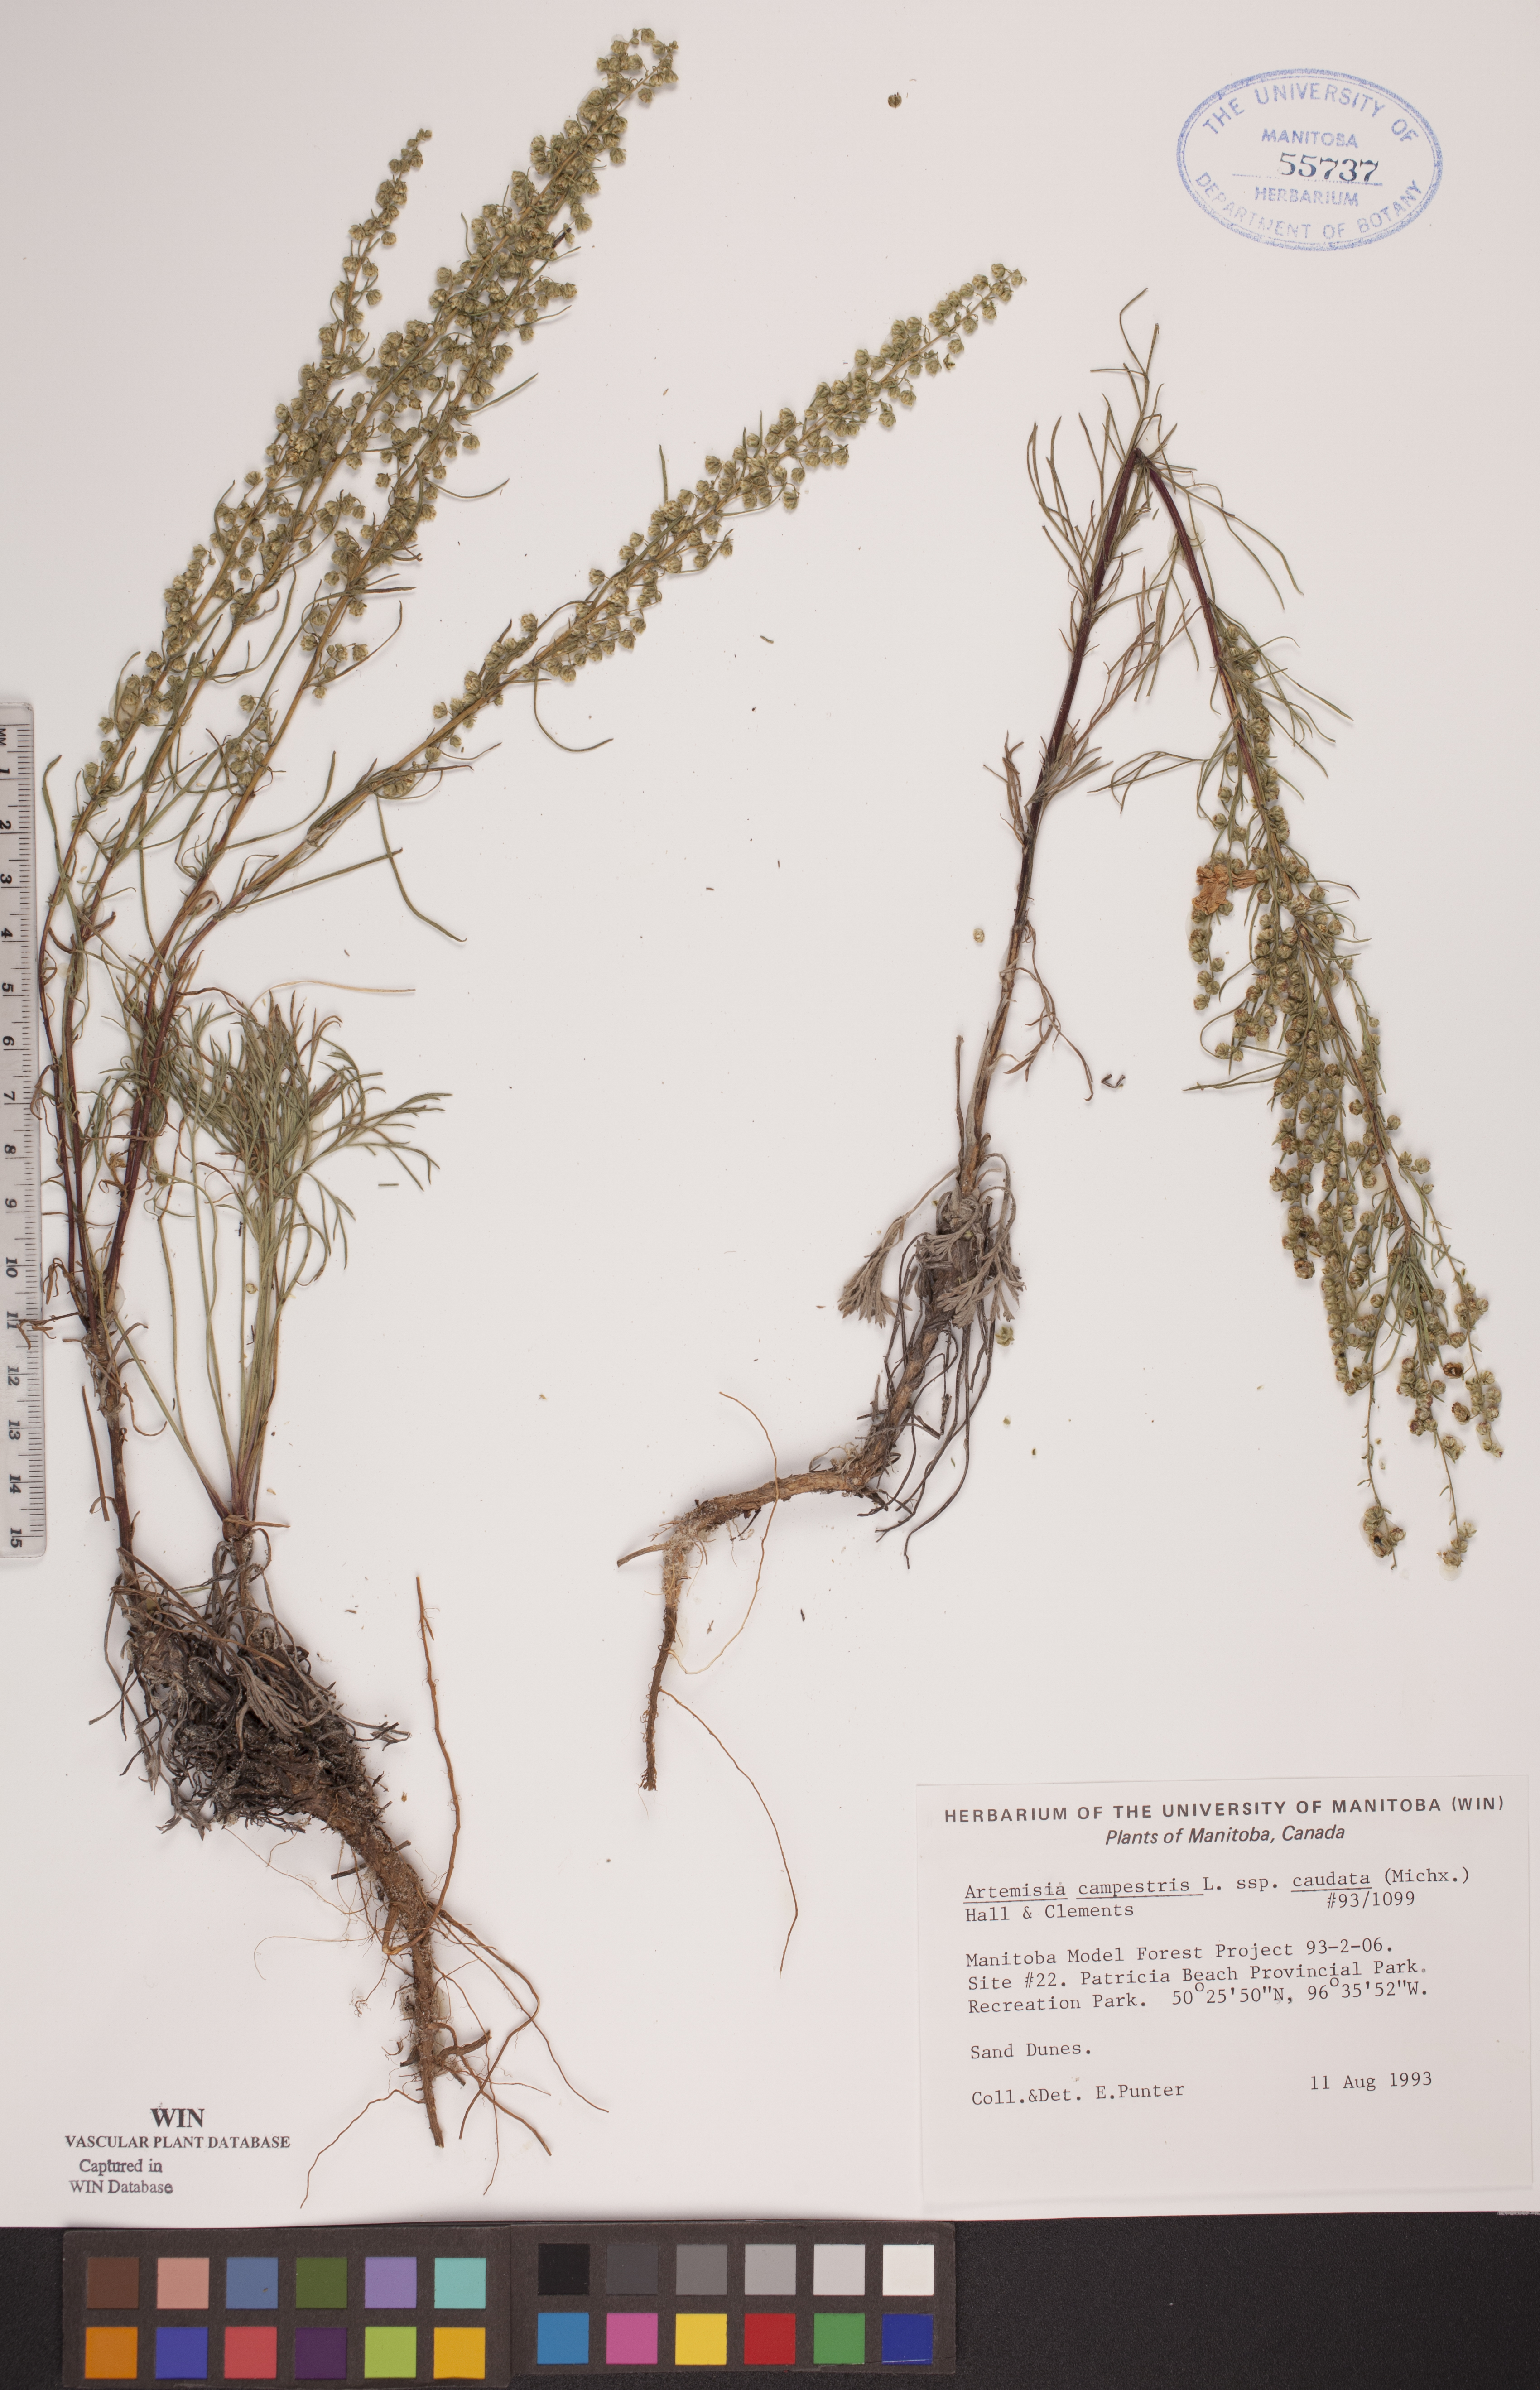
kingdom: Plantae
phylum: Tracheophyta
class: Magnoliopsida
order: Asterales
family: Asteraceae
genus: Artemisia
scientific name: Artemisia campestris
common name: Field wormwood
